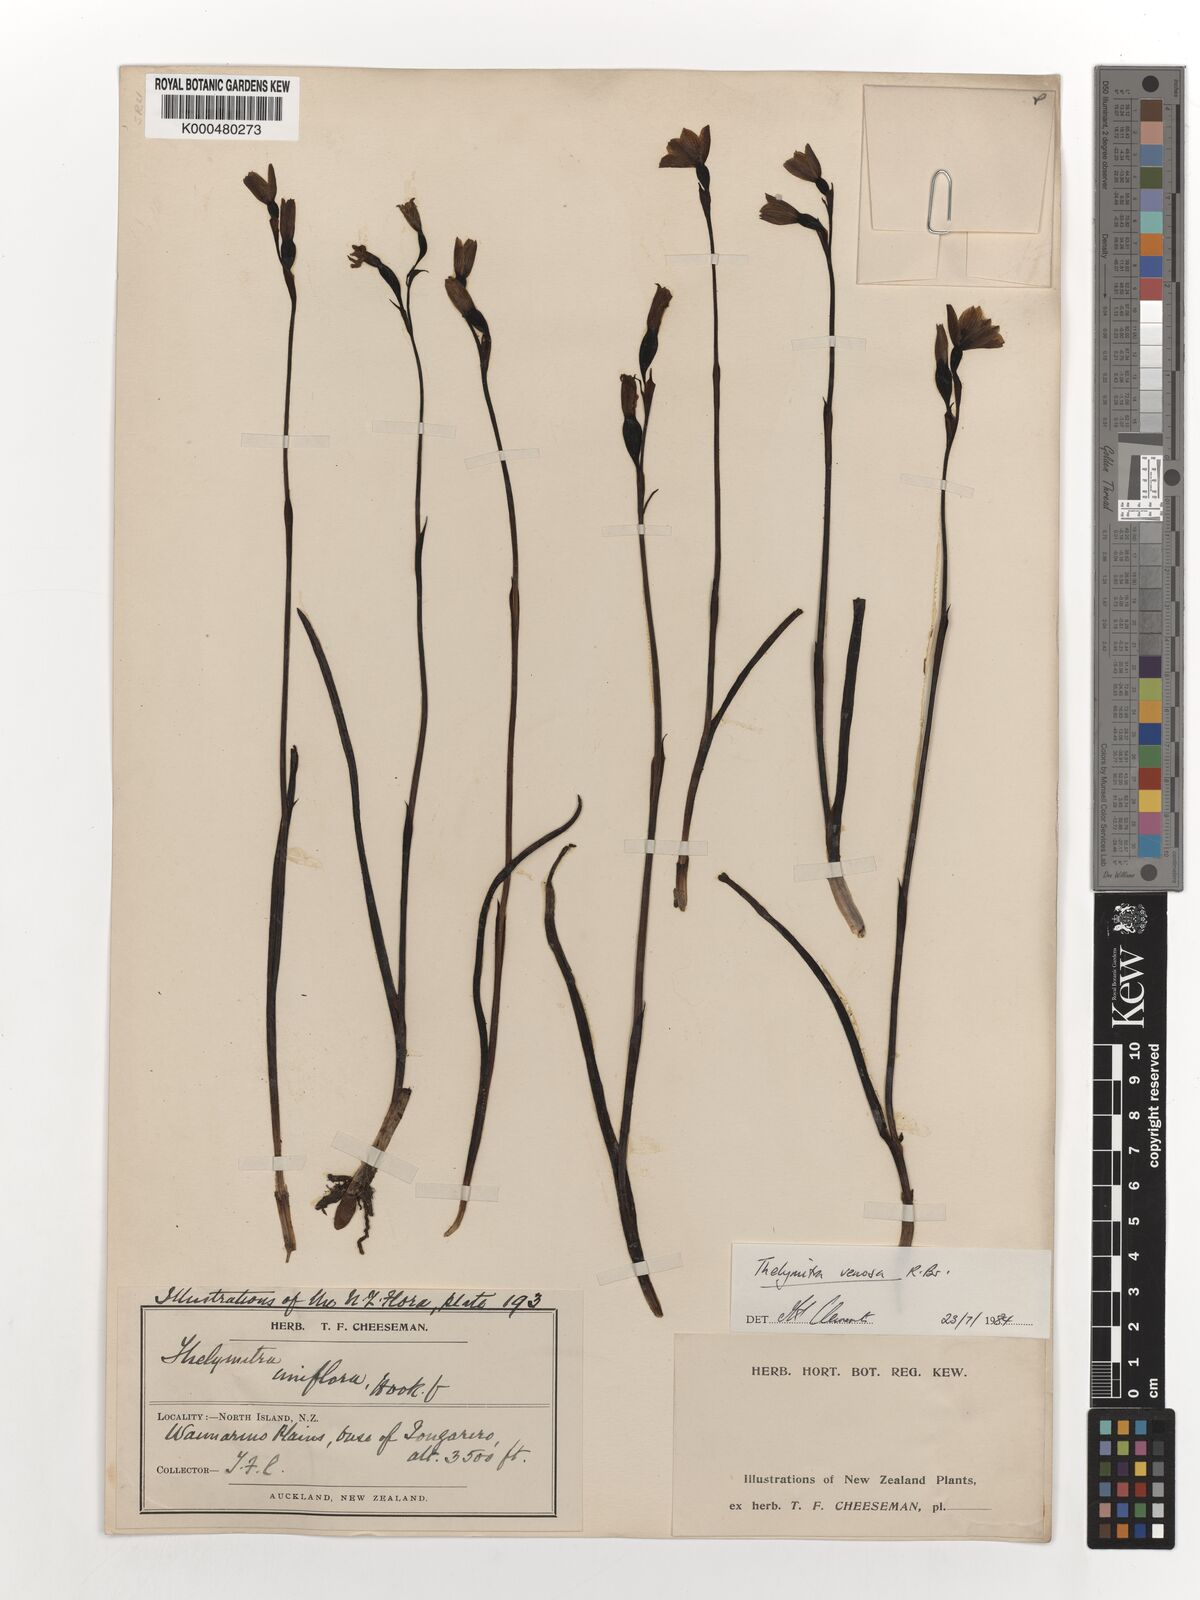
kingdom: Plantae
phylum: Tracheophyta
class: Liliopsida
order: Asparagales
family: Orchidaceae
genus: Thelymitra
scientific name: Thelymitra cyanea
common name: Blue sun-orchid
